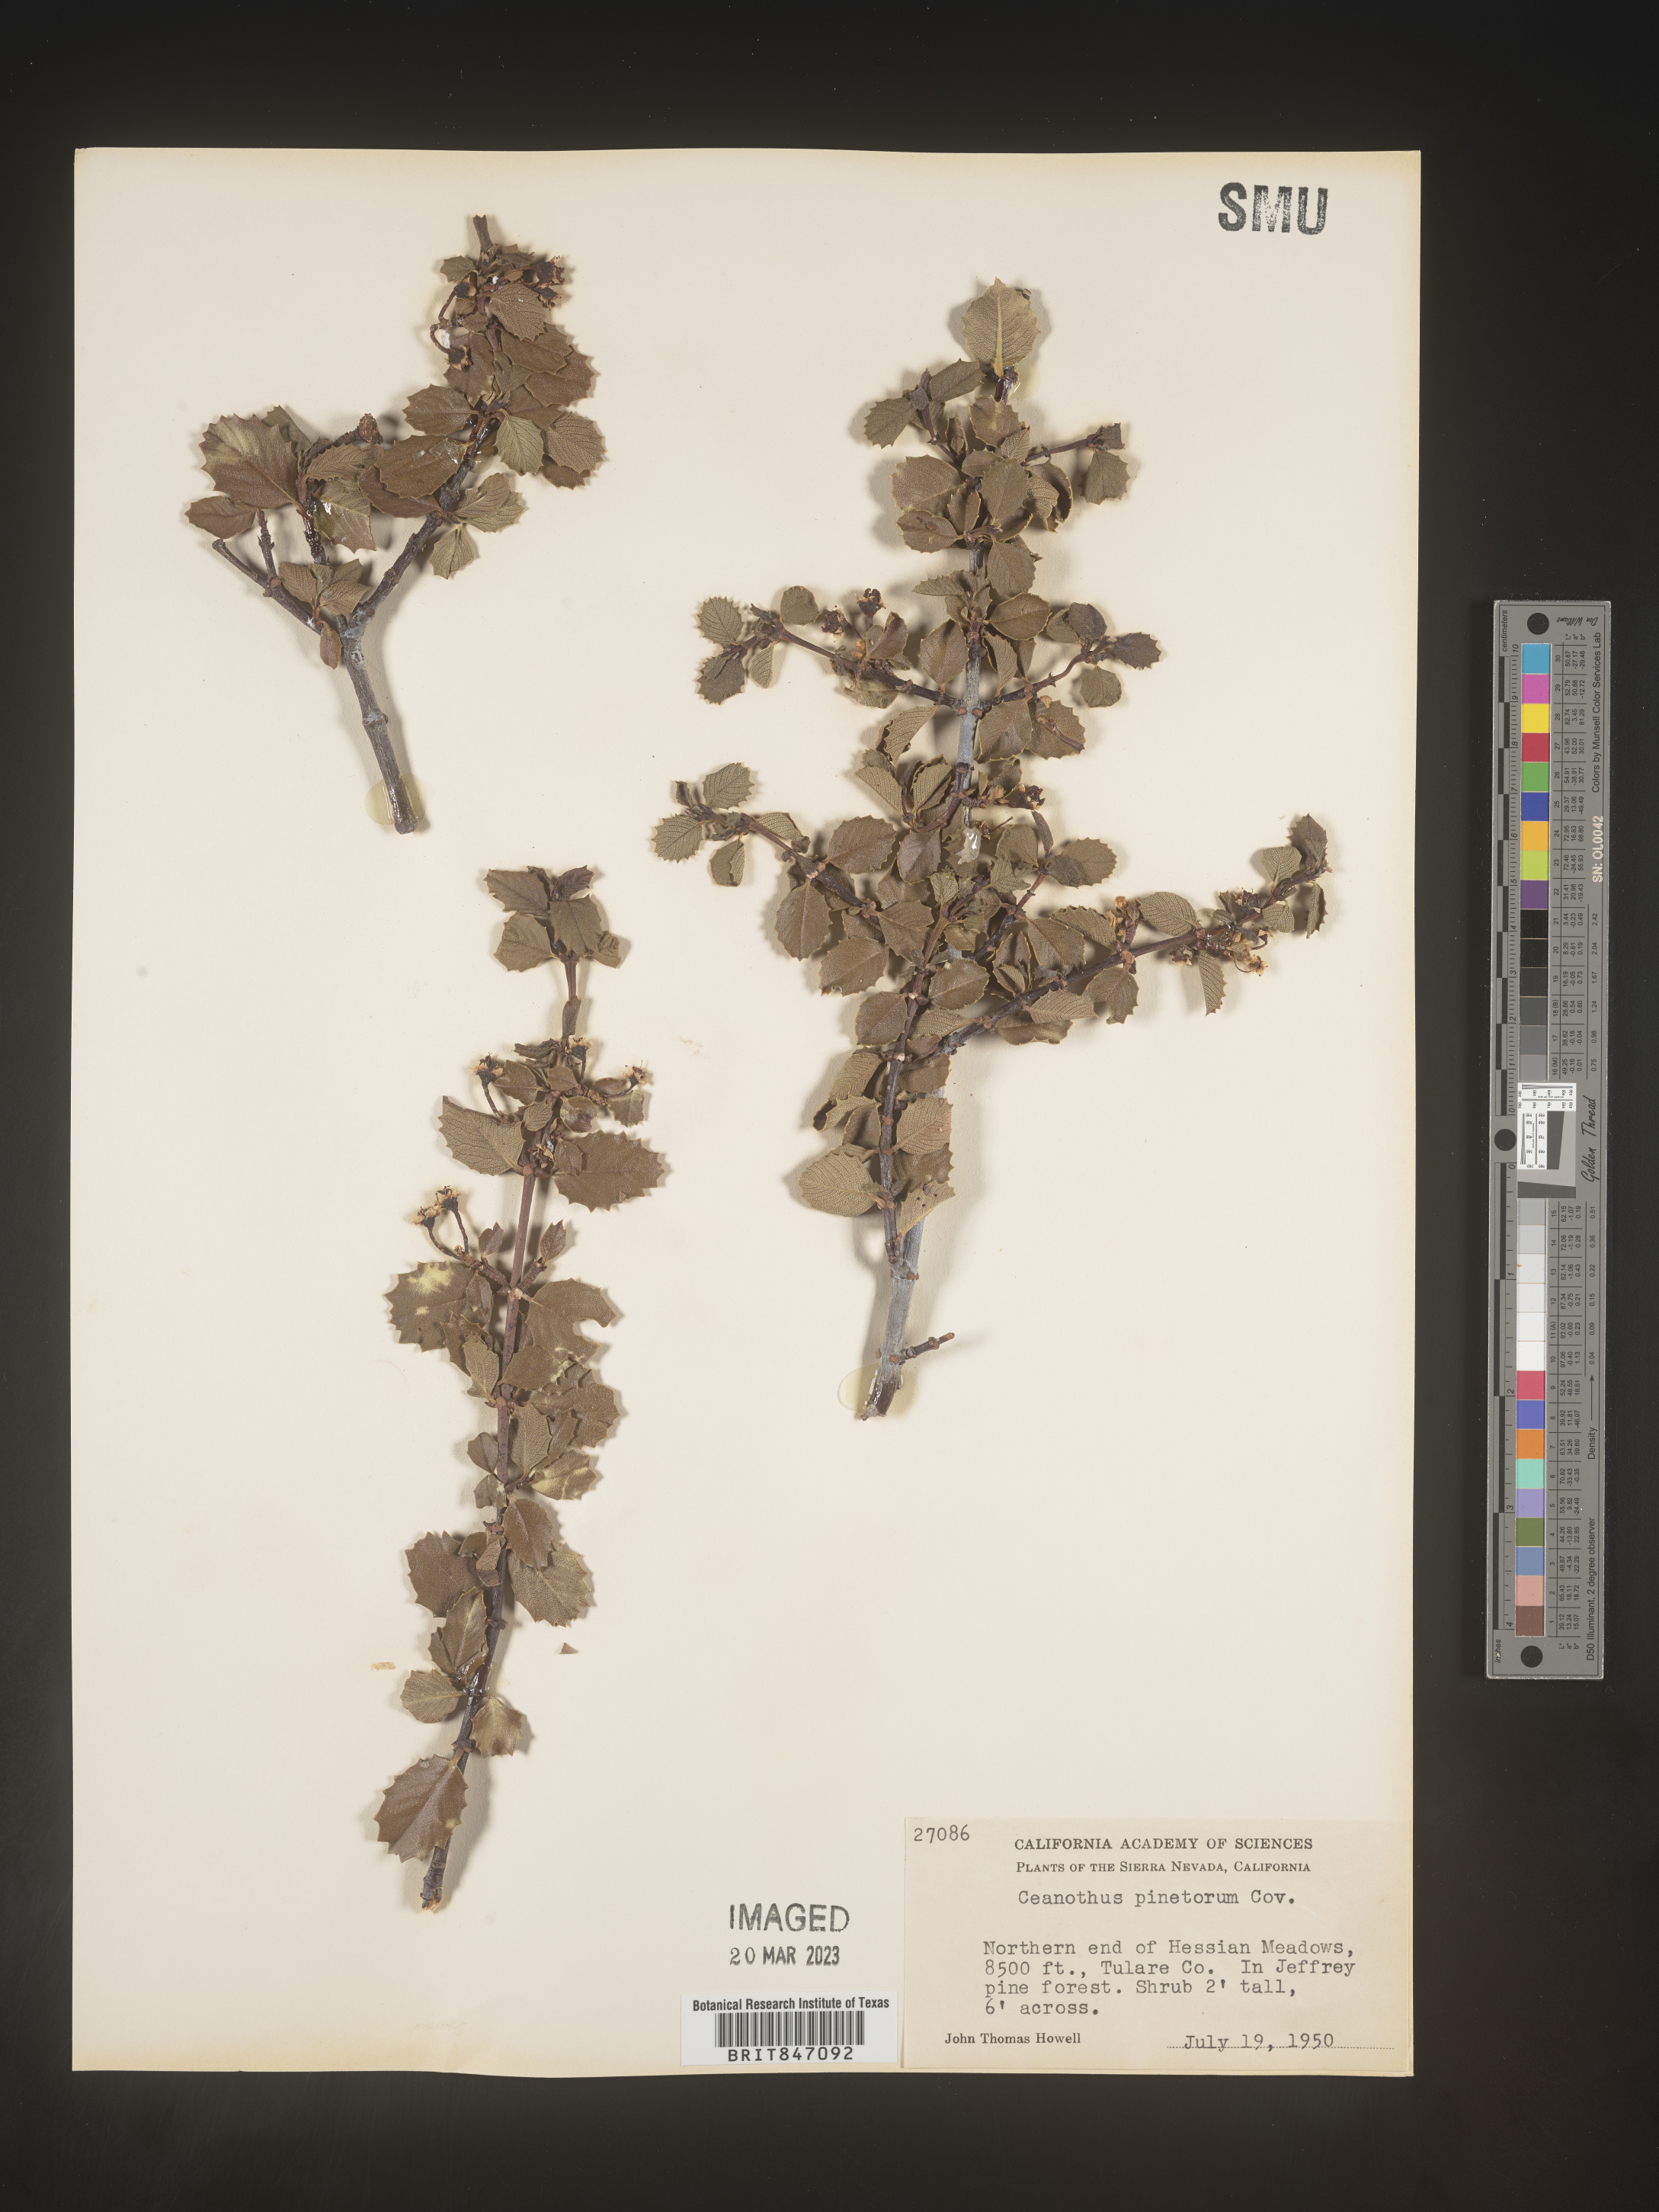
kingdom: Plantae
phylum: Tracheophyta
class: Magnoliopsida
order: Rosales
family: Rhamnaceae
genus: Ceanothus
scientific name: Ceanothus
